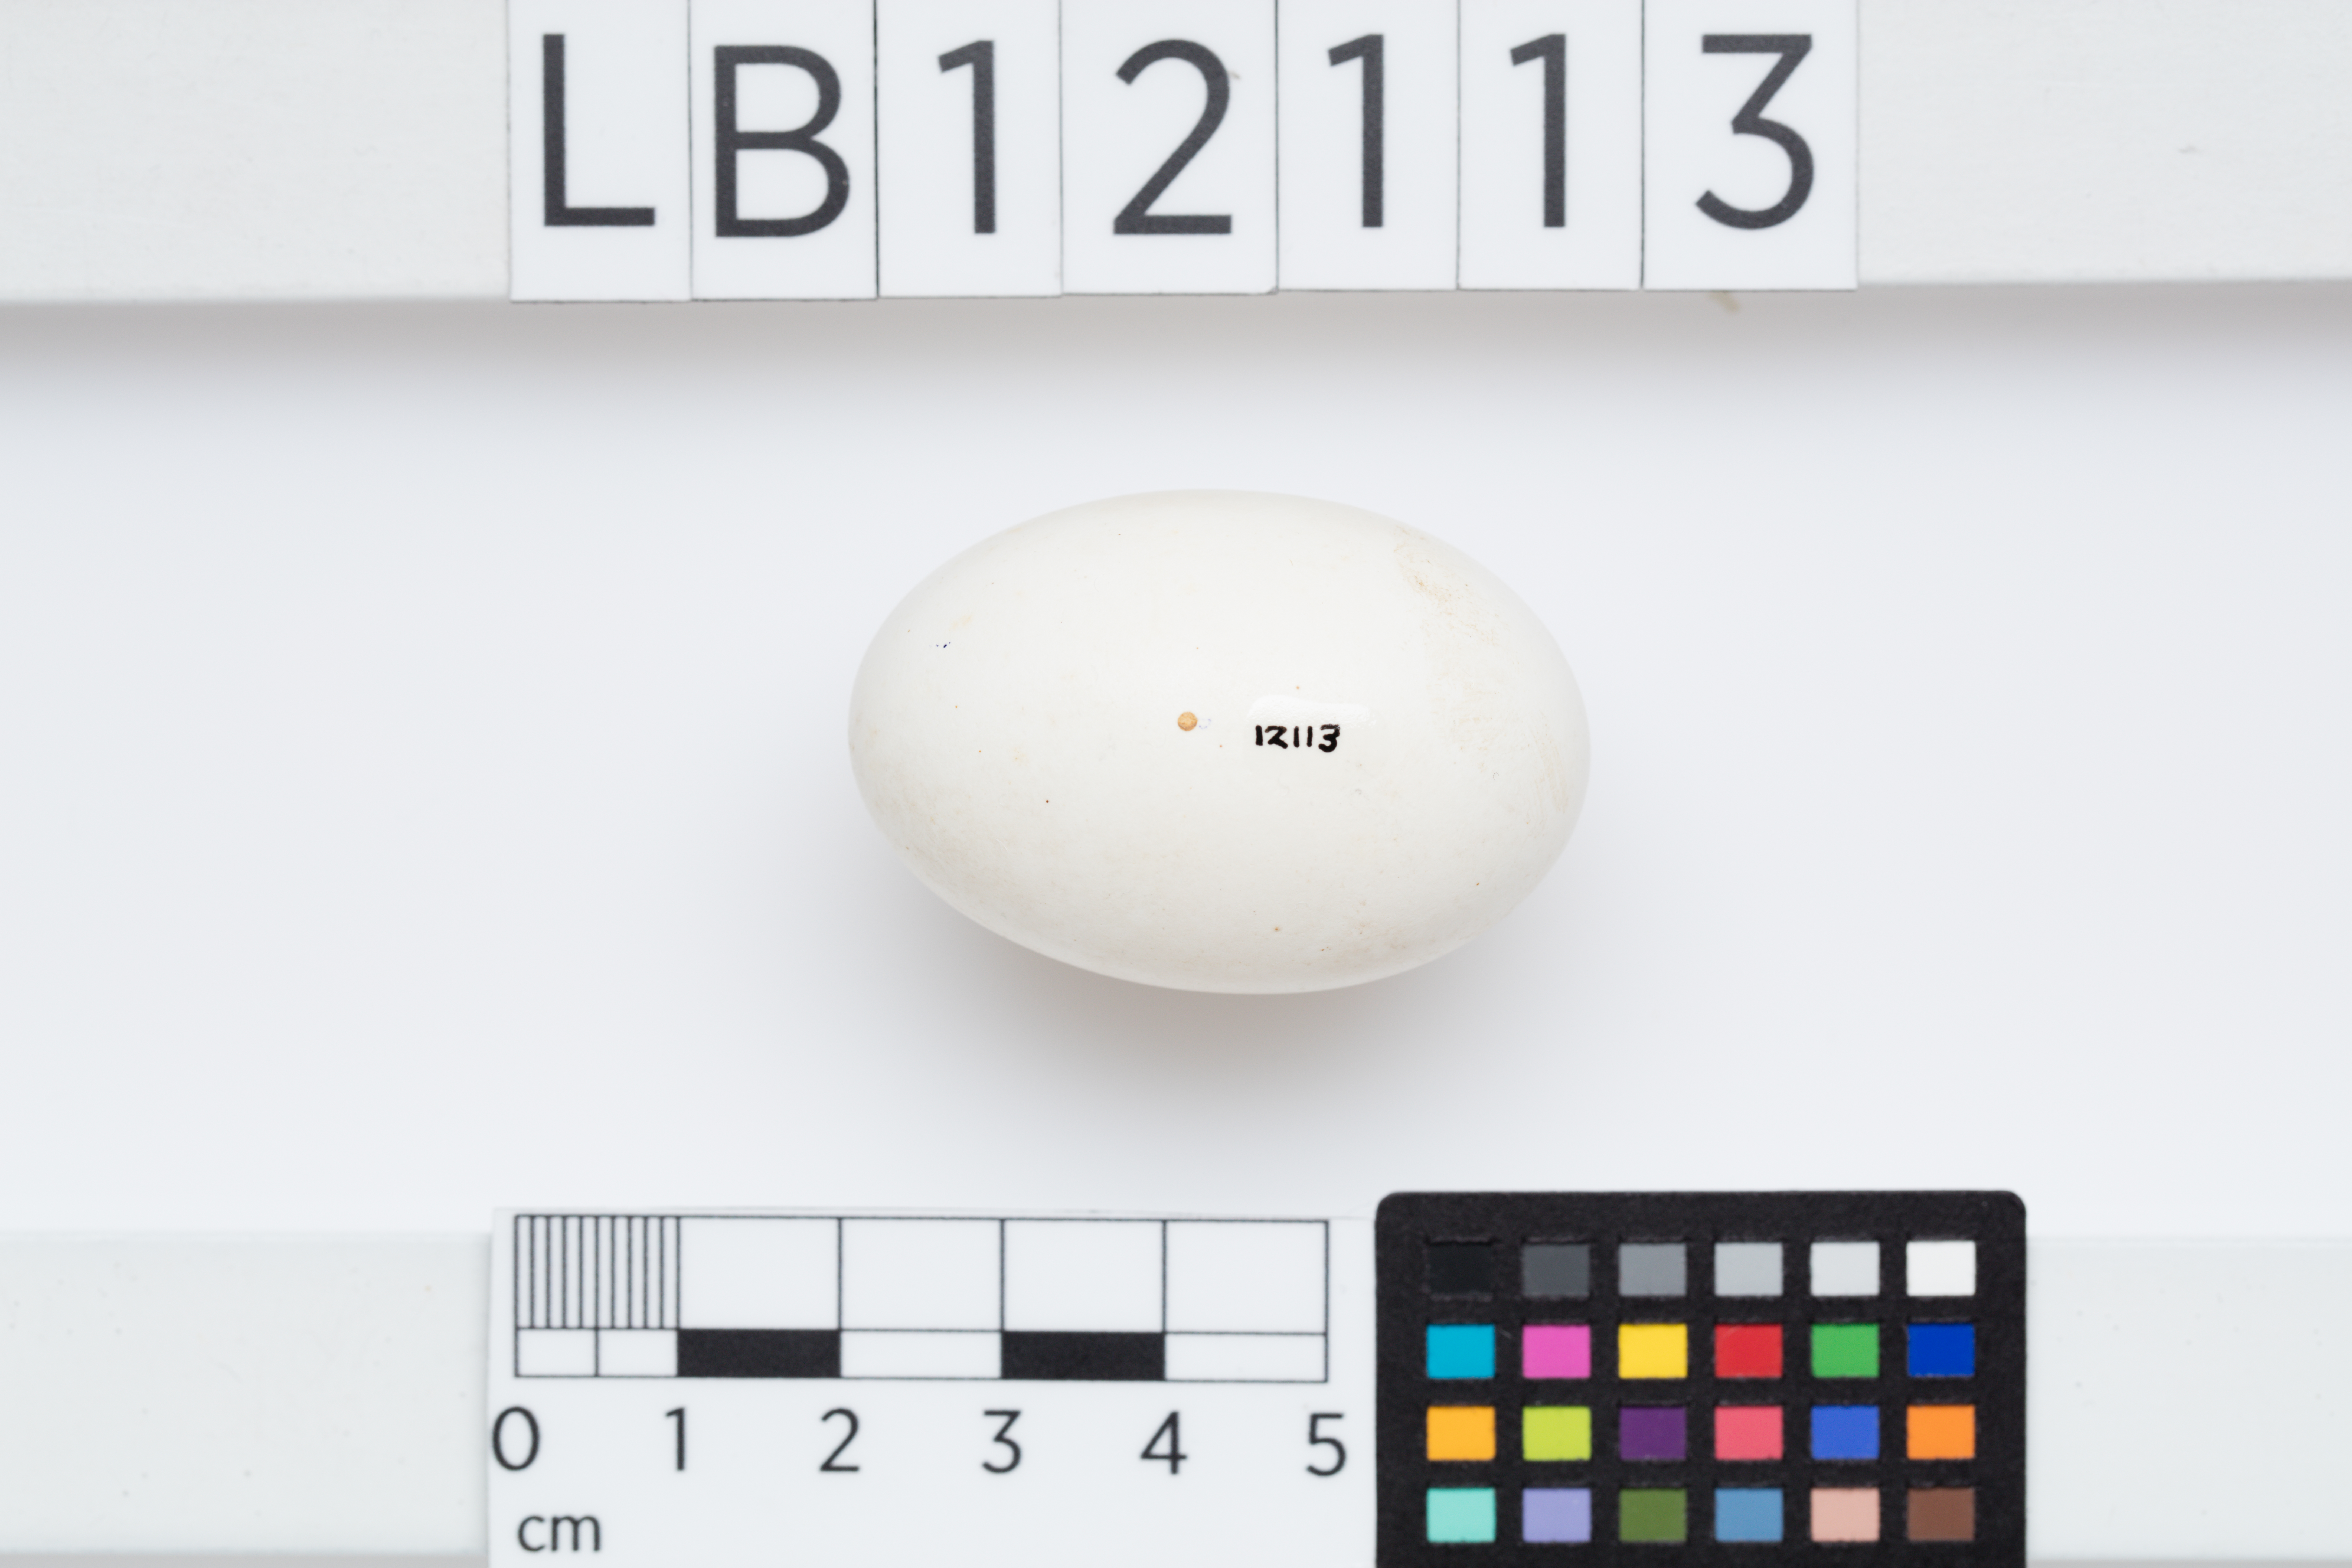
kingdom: Animalia
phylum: Chordata
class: Aves
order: Columbiformes
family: Columbidae
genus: Ducula
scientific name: Ducula spilorrhoa
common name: Torresian imperial pigeon
